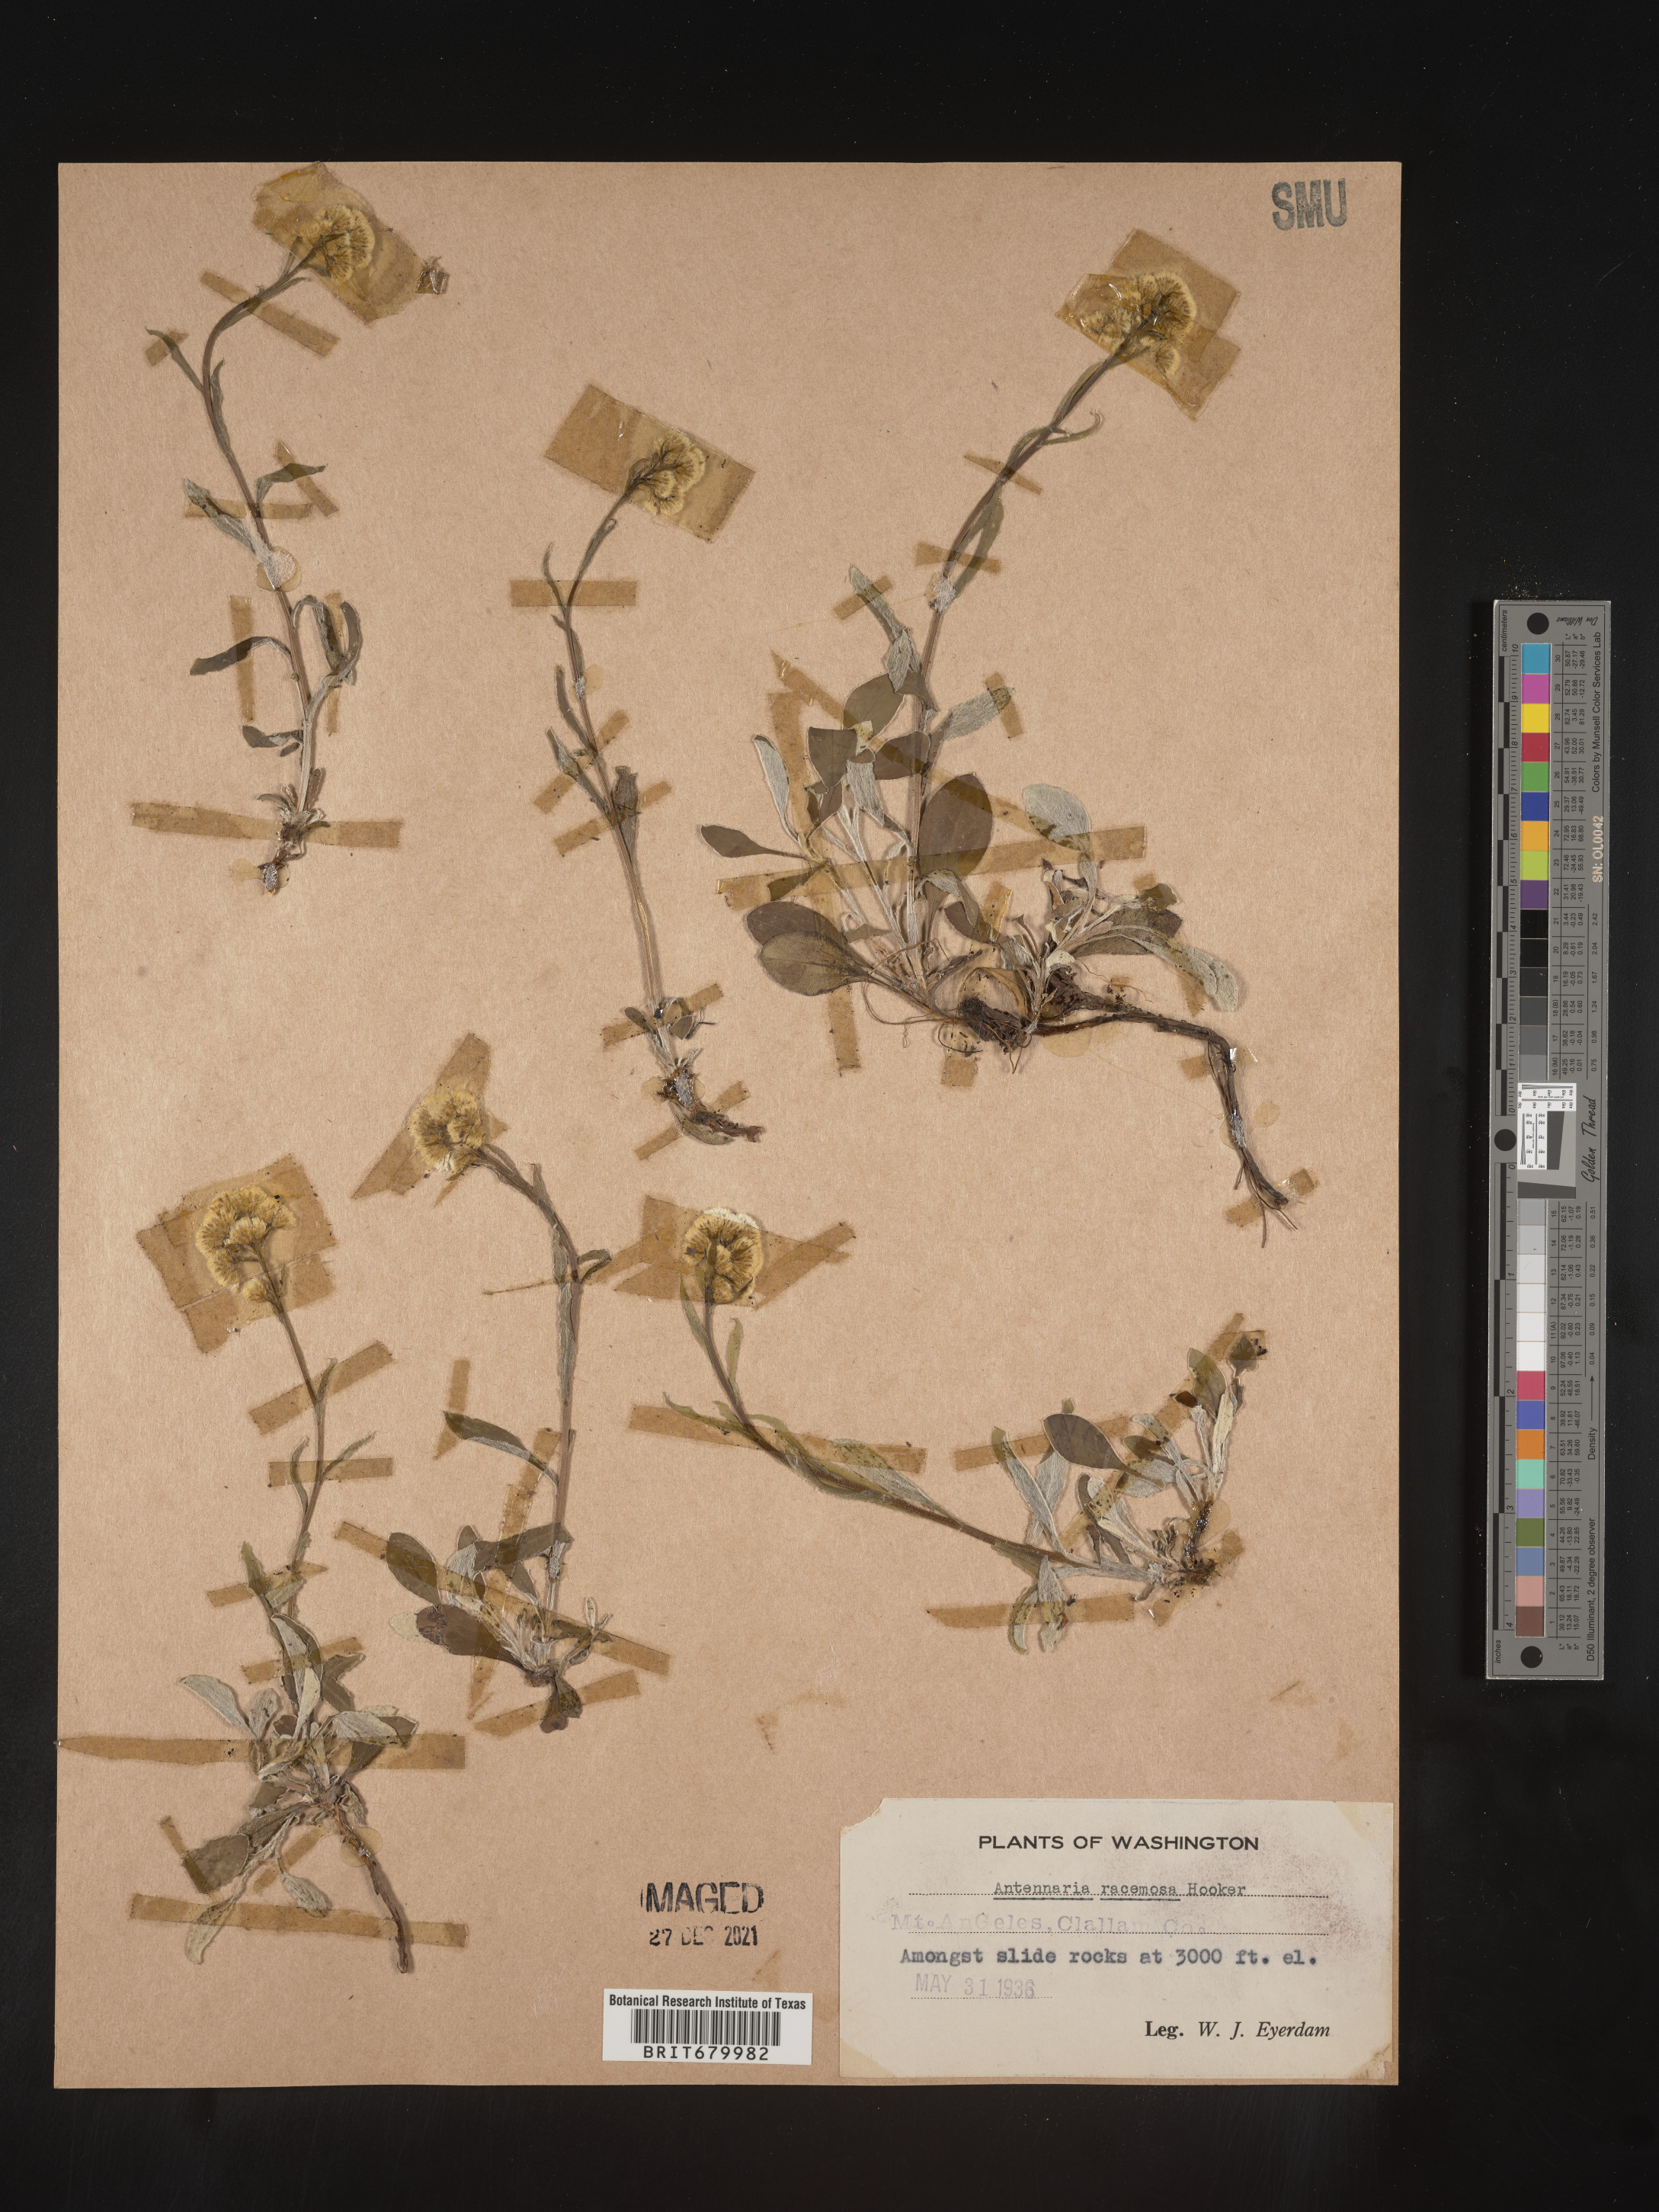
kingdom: Plantae
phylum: Tracheophyta
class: Magnoliopsida
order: Asterales
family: Asteraceae
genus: Antennaria
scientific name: Antennaria racemosa
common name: Racemose pussytoes
